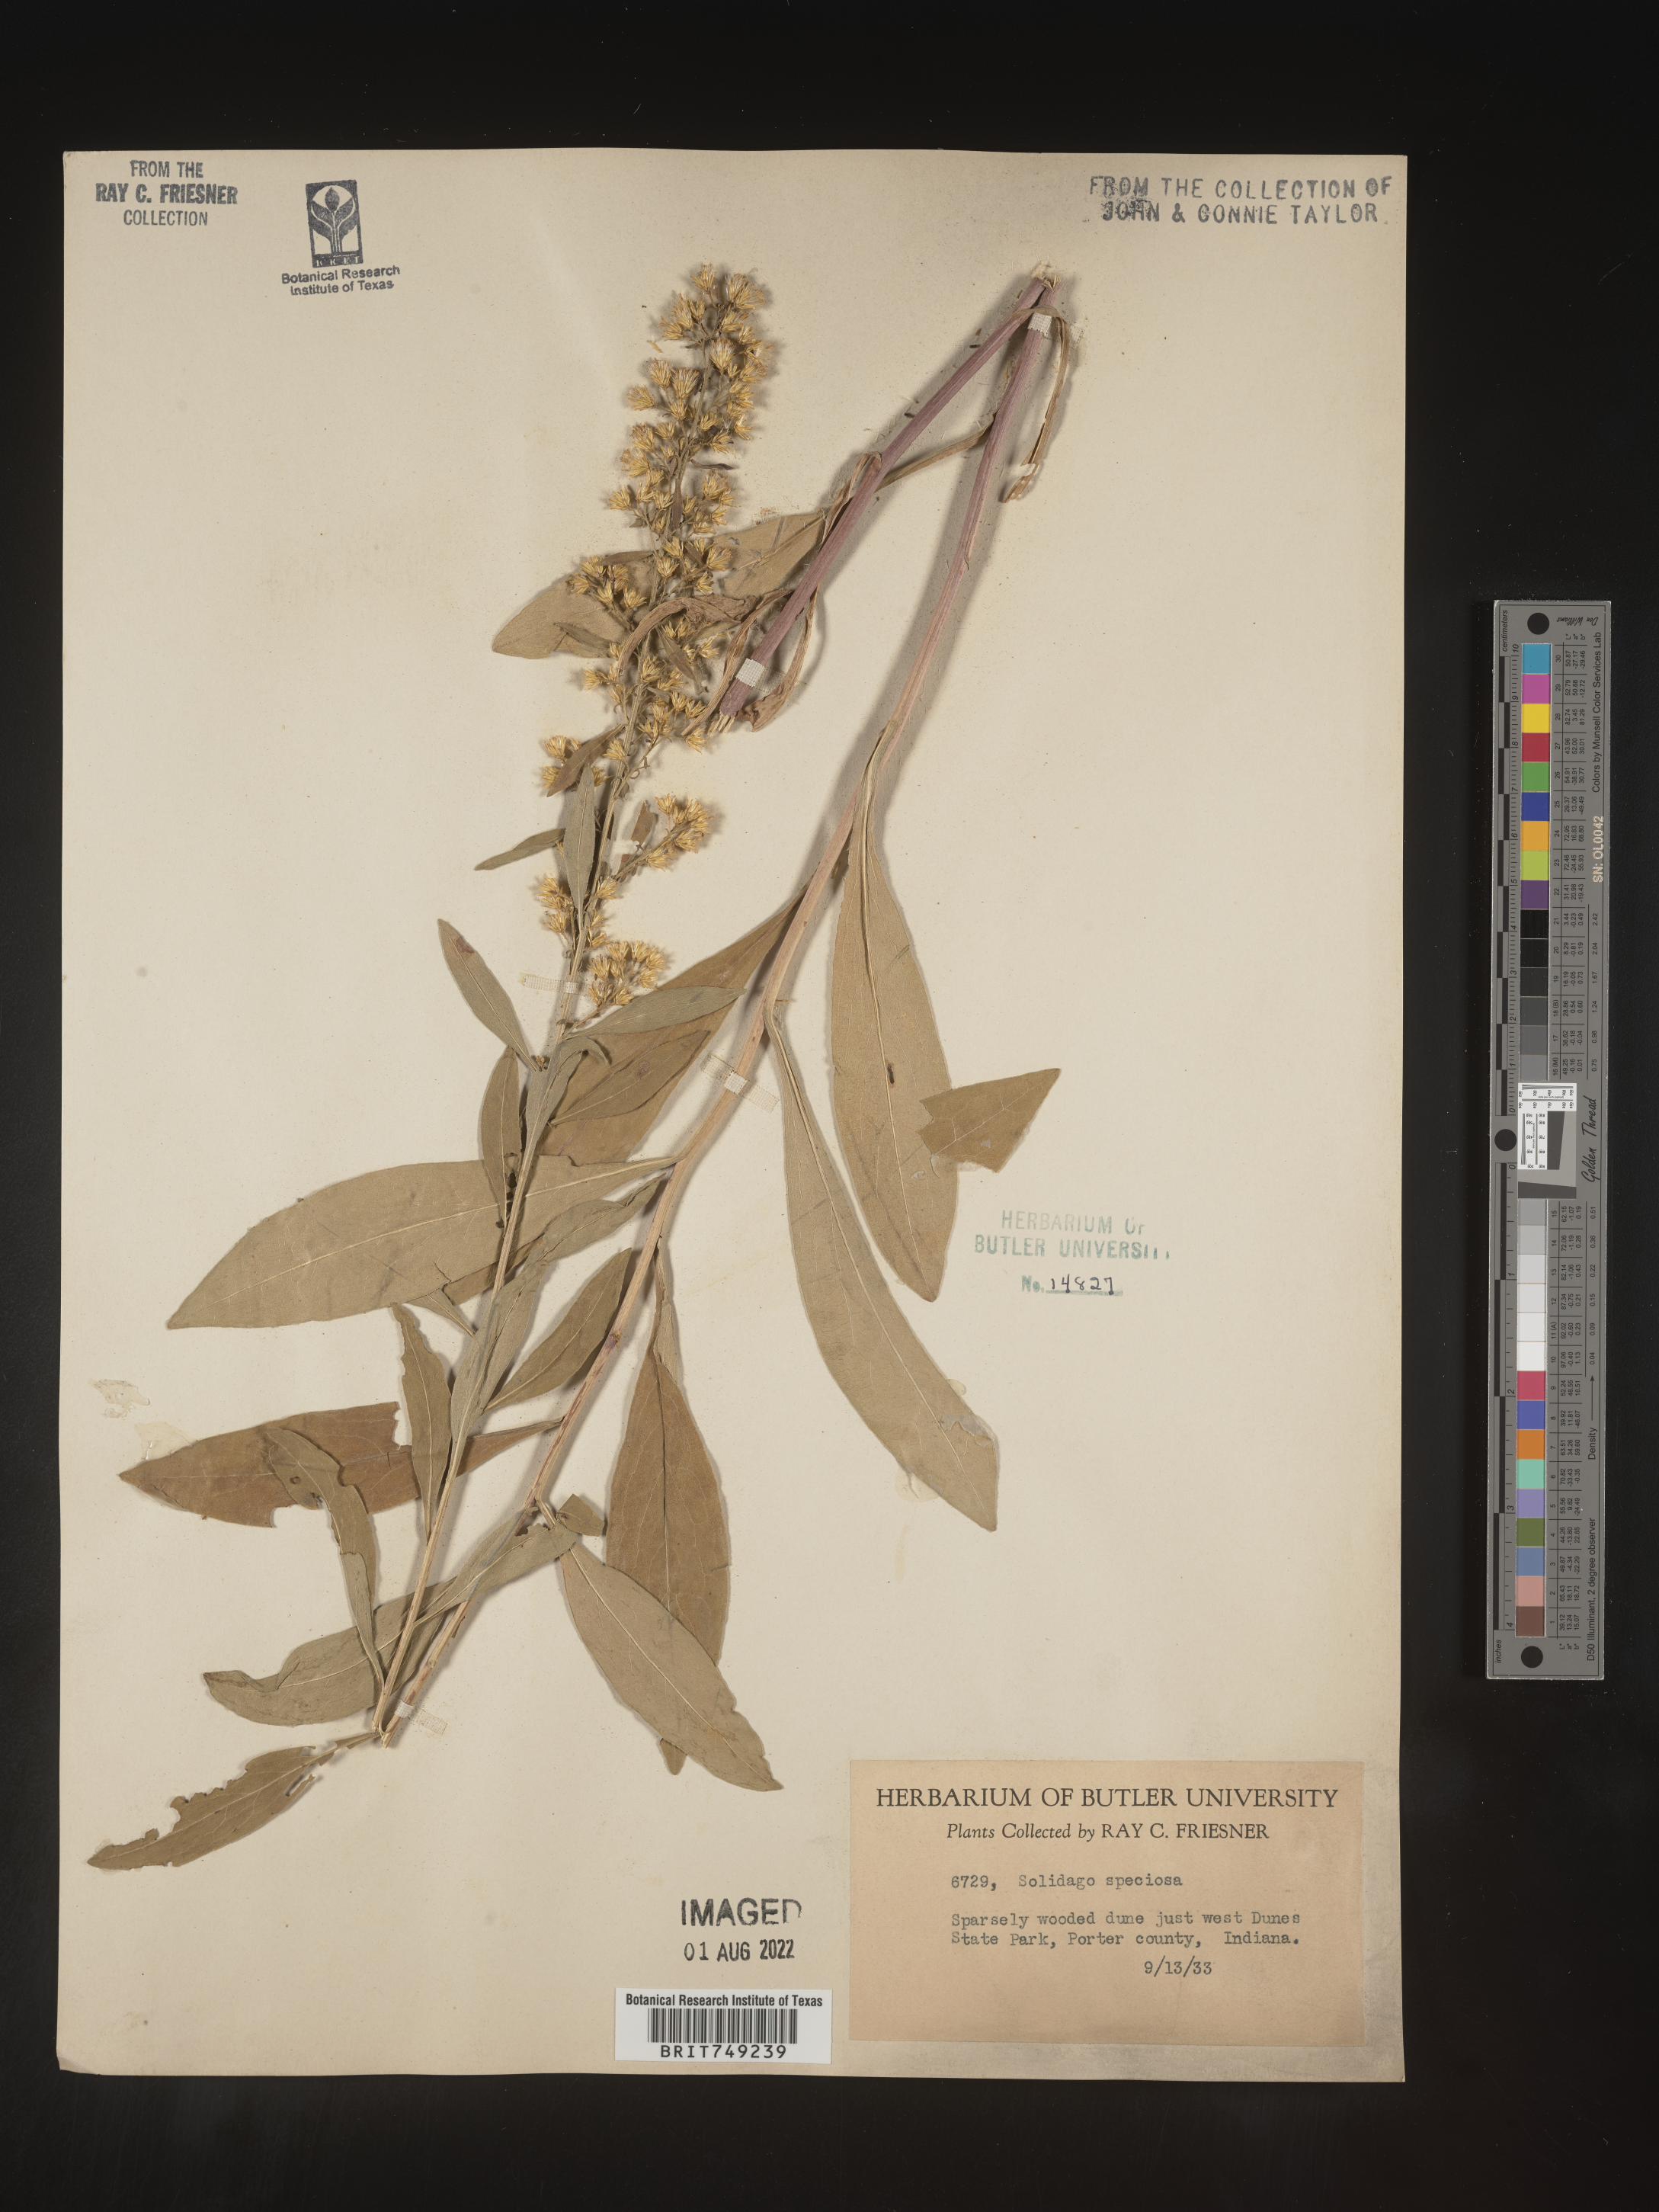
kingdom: Plantae
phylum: Tracheophyta
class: Magnoliopsida
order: Asterales
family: Asteraceae
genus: Solidago
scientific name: Solidago speciosa
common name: Showy goldenrod
